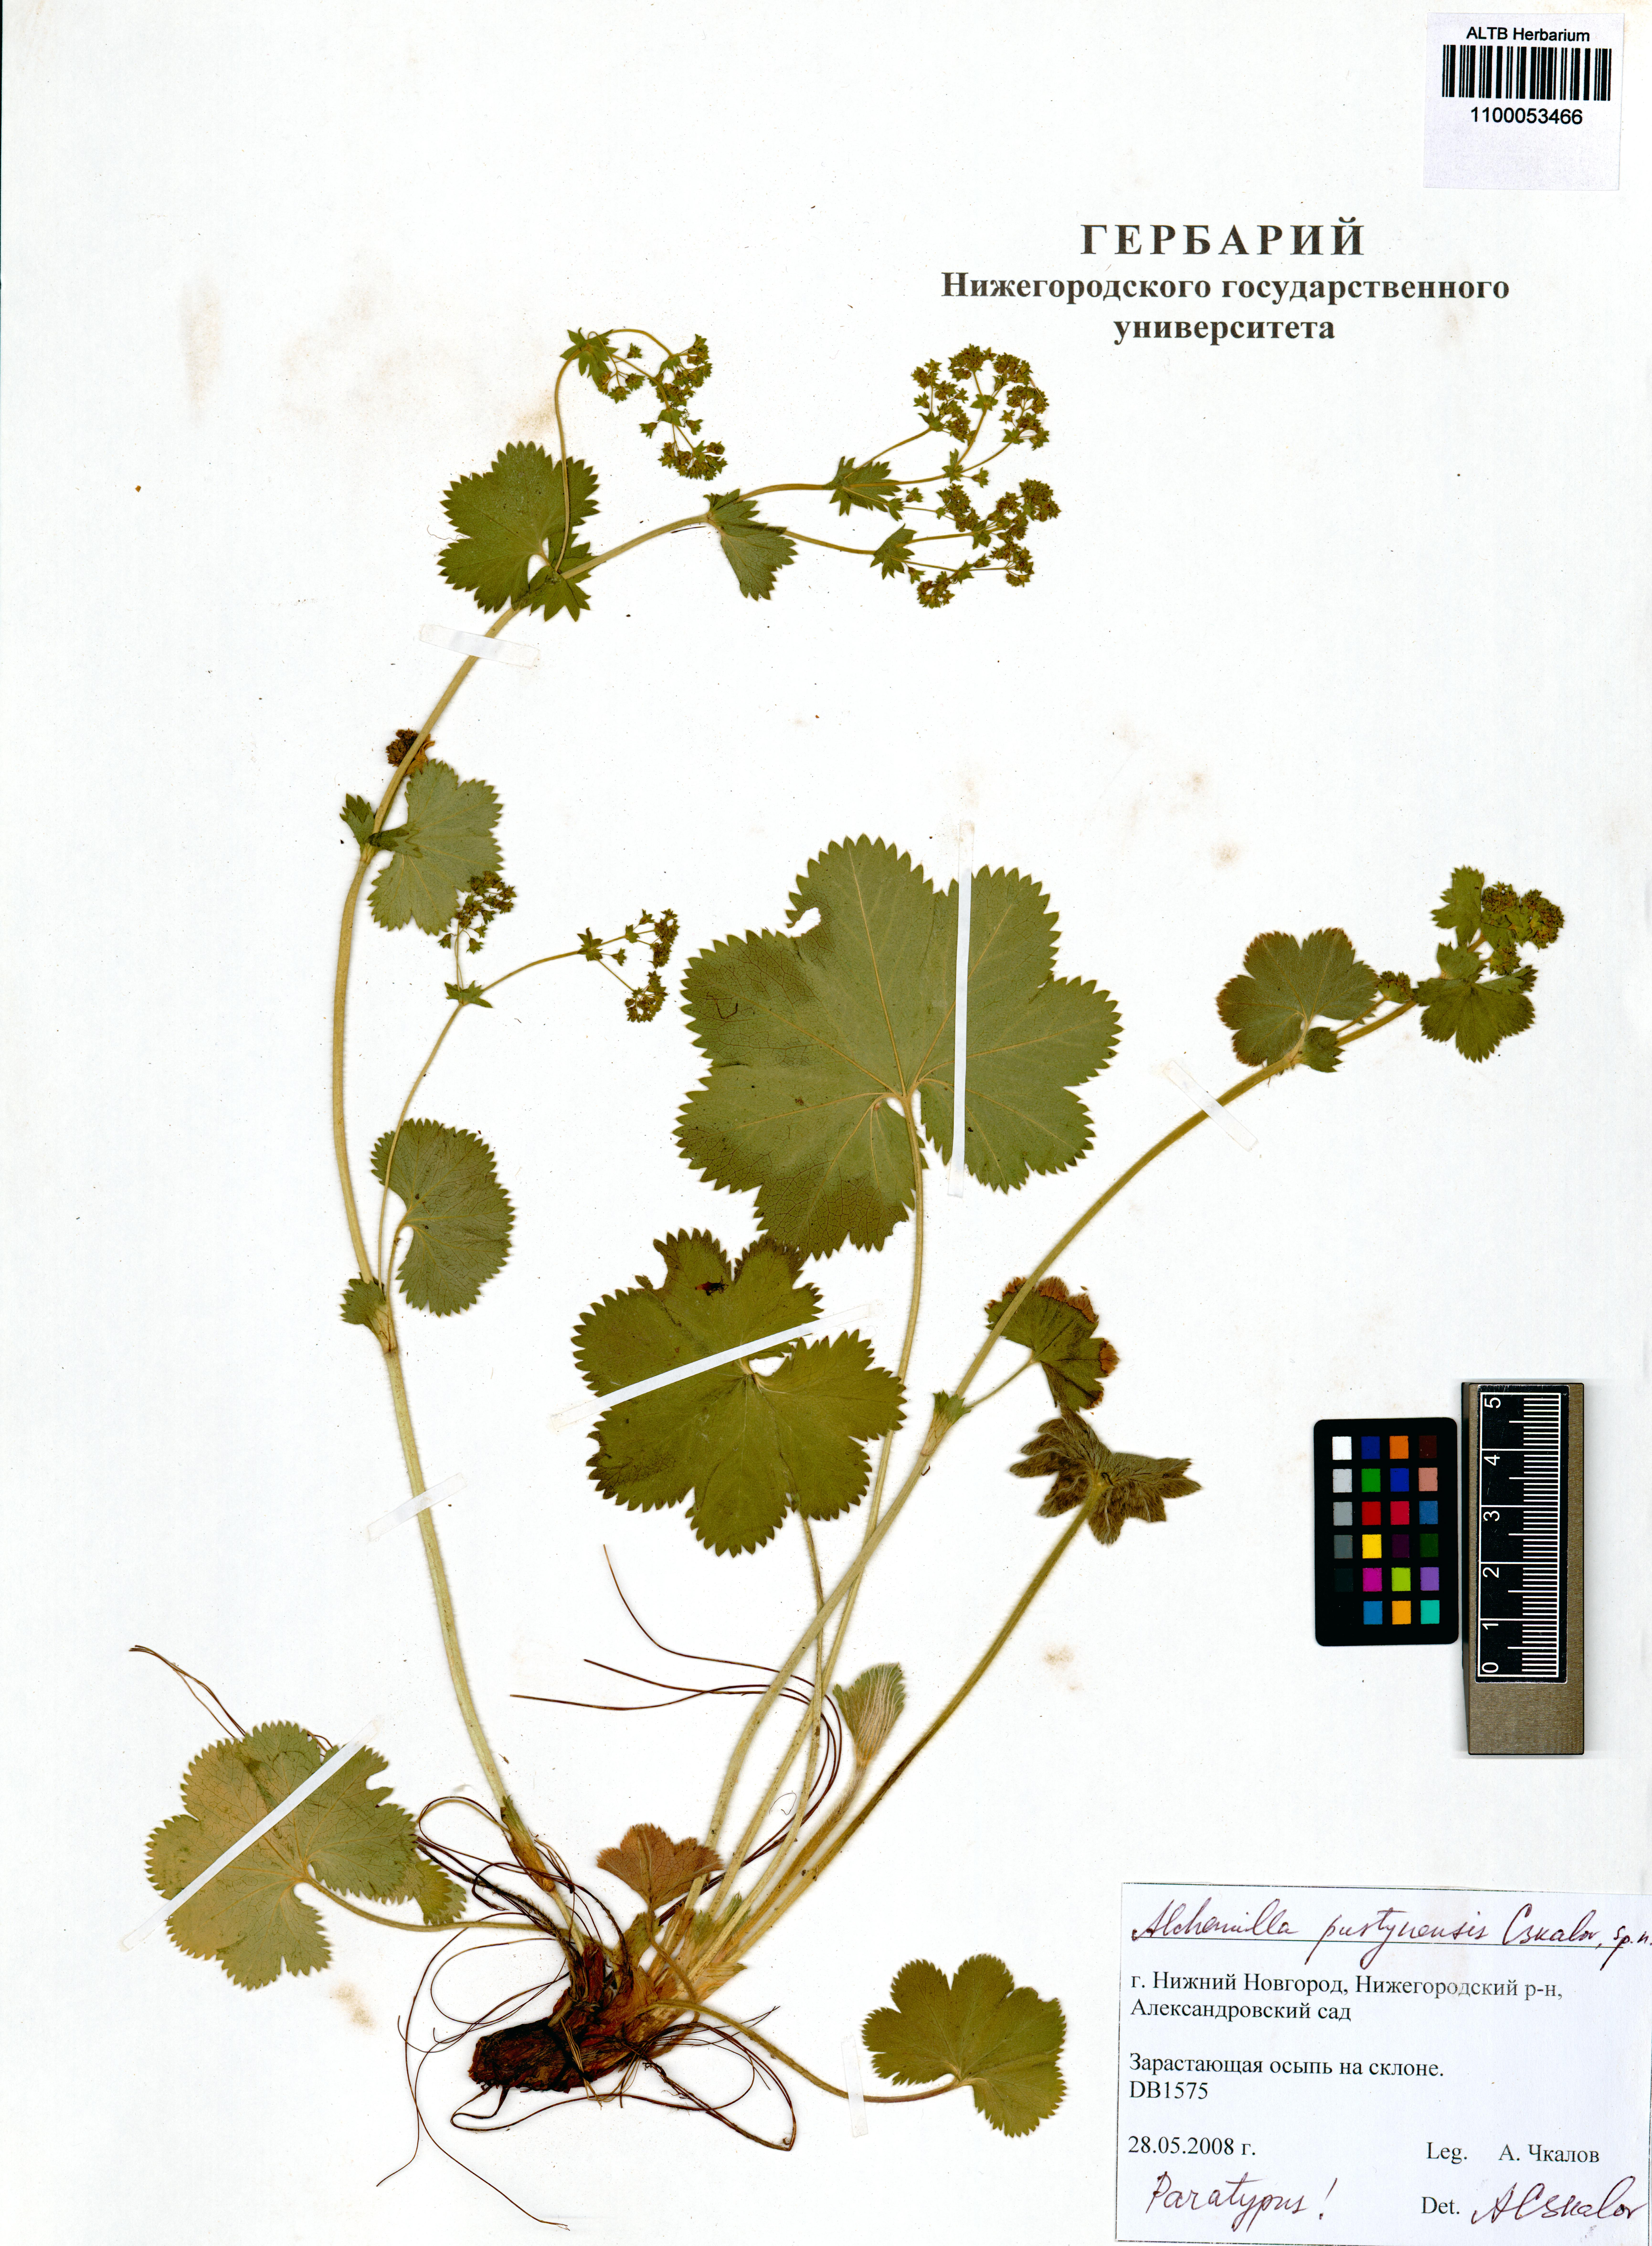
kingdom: Plantae
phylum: Tracheophyta
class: Magnoliopsida
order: Rosales
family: Rosaceae
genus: Alchemilla
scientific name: Alchemilla pustynensis
